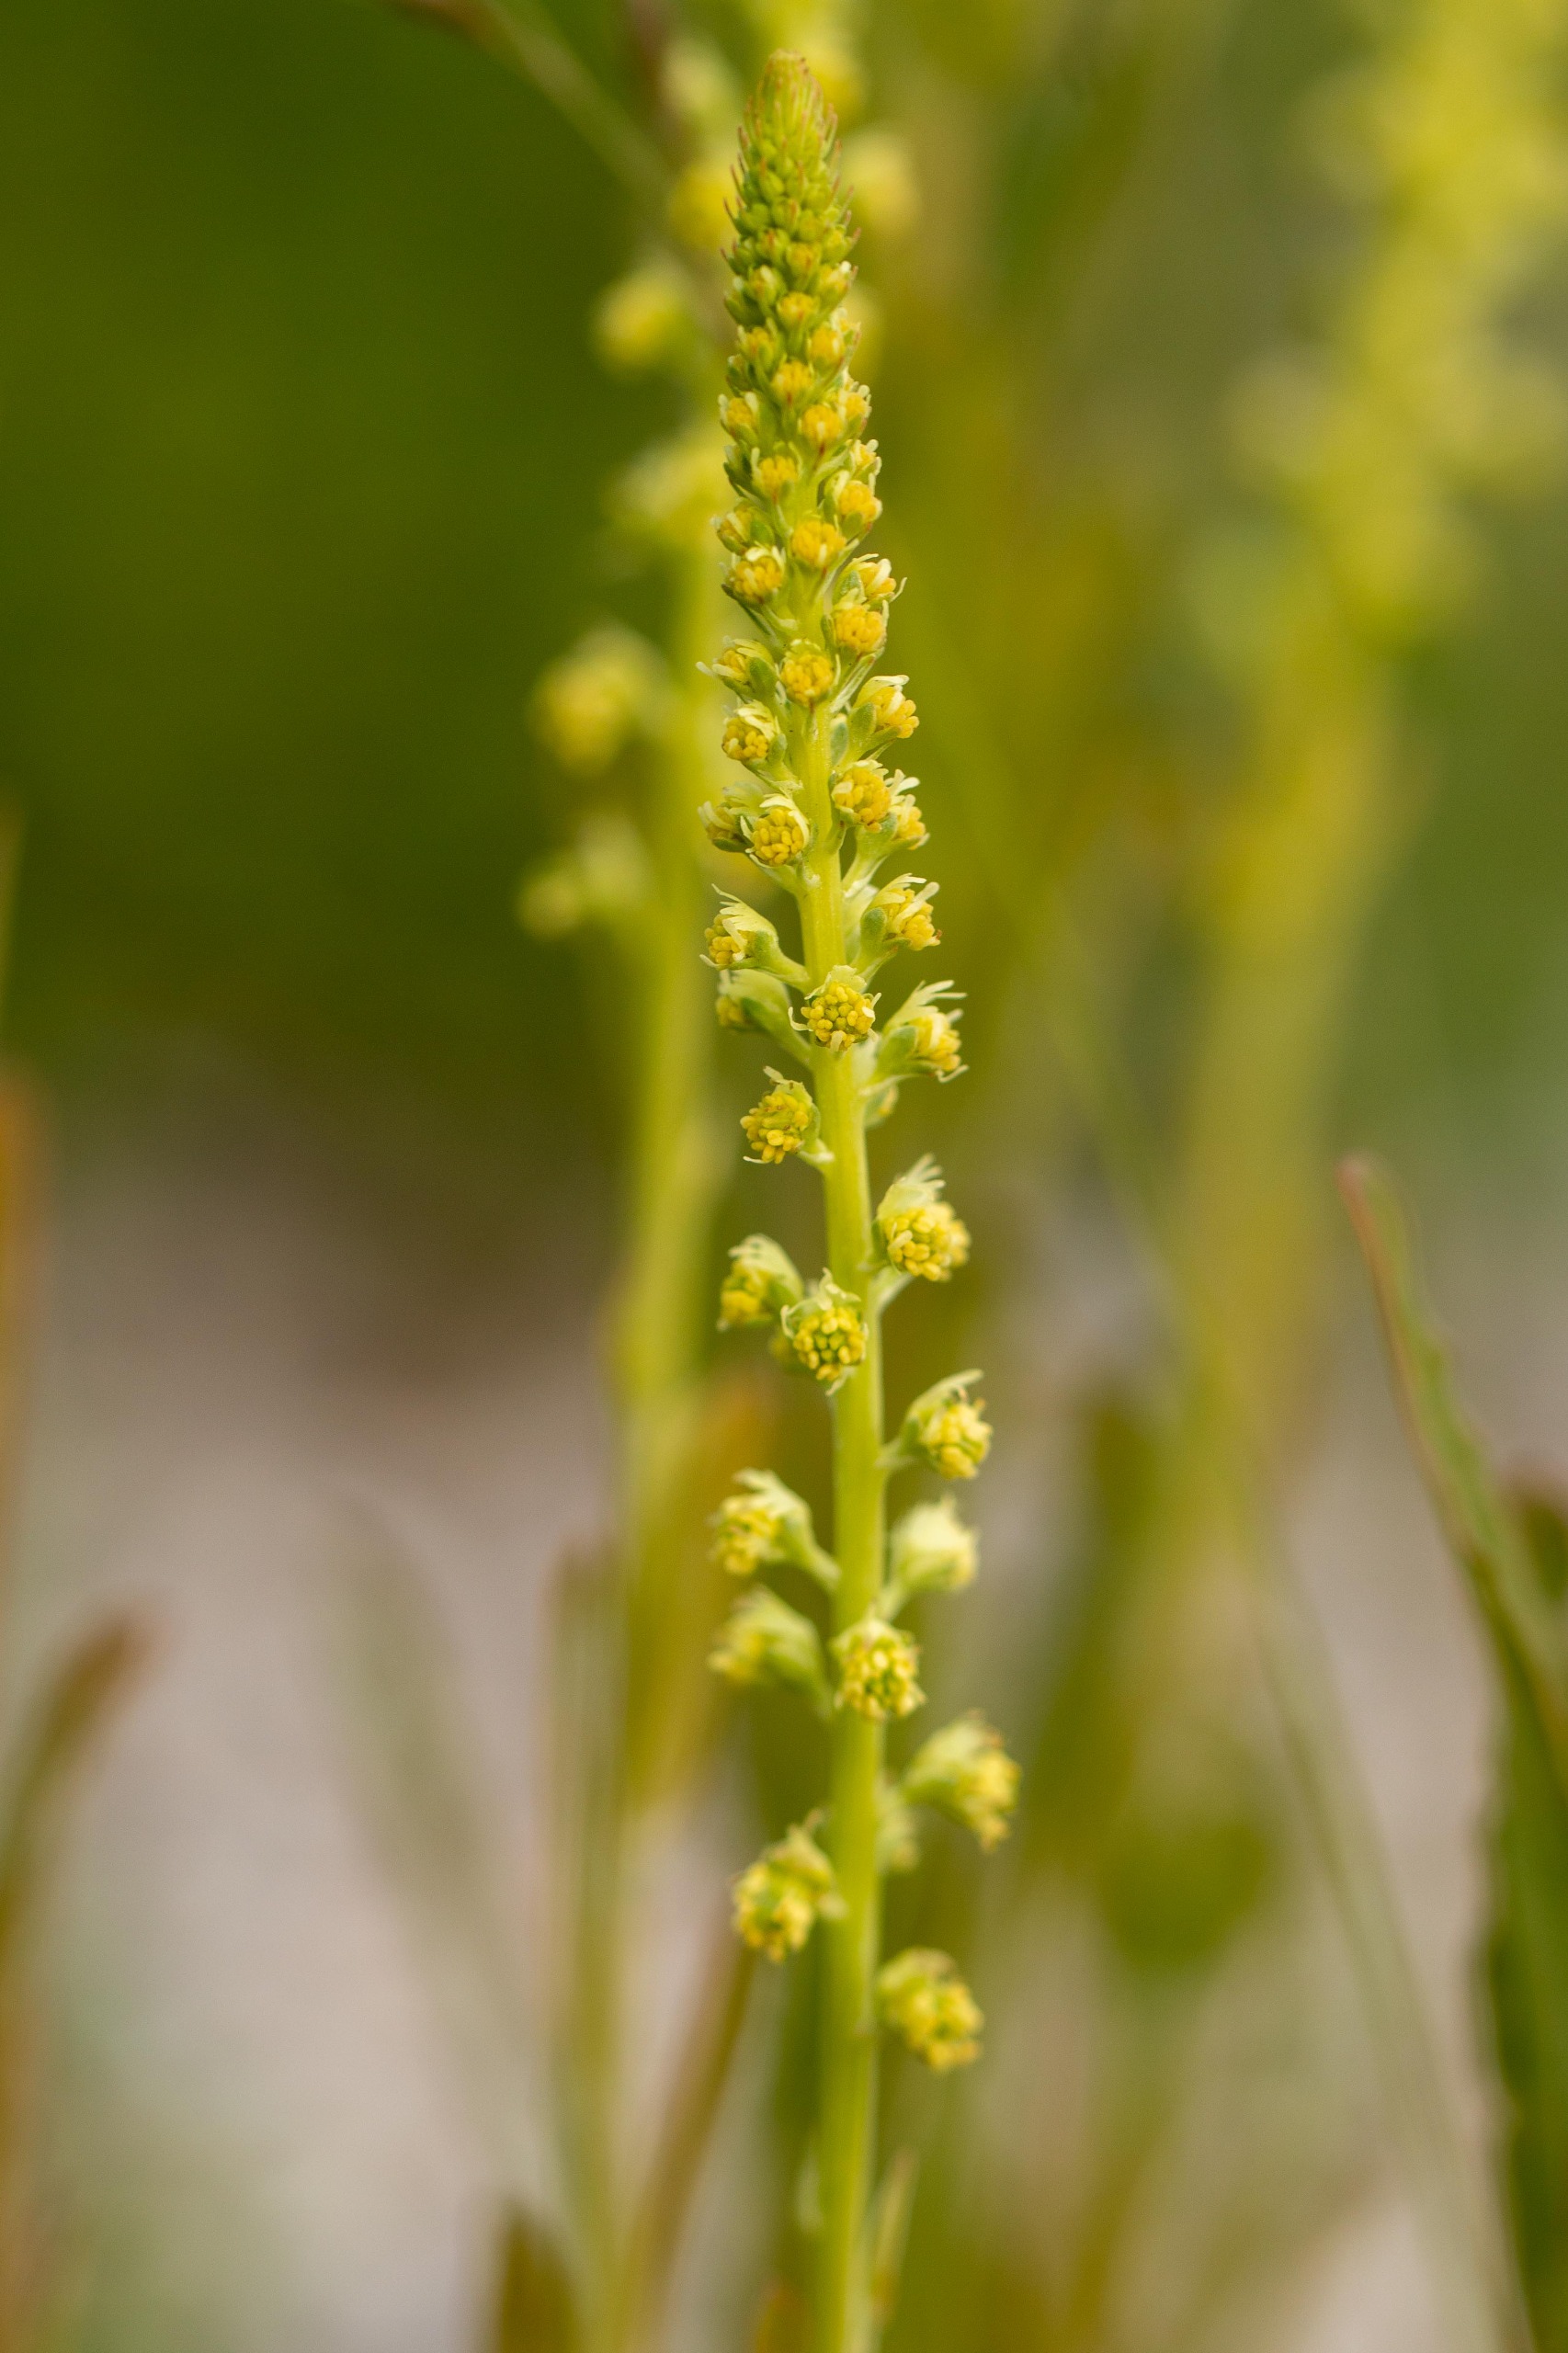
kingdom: Plantae
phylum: Tracheophyta
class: Magnoliopsida
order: Brassicales
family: Resedaceae
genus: Reseda
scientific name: Reseda luteola
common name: Farve-reseda
